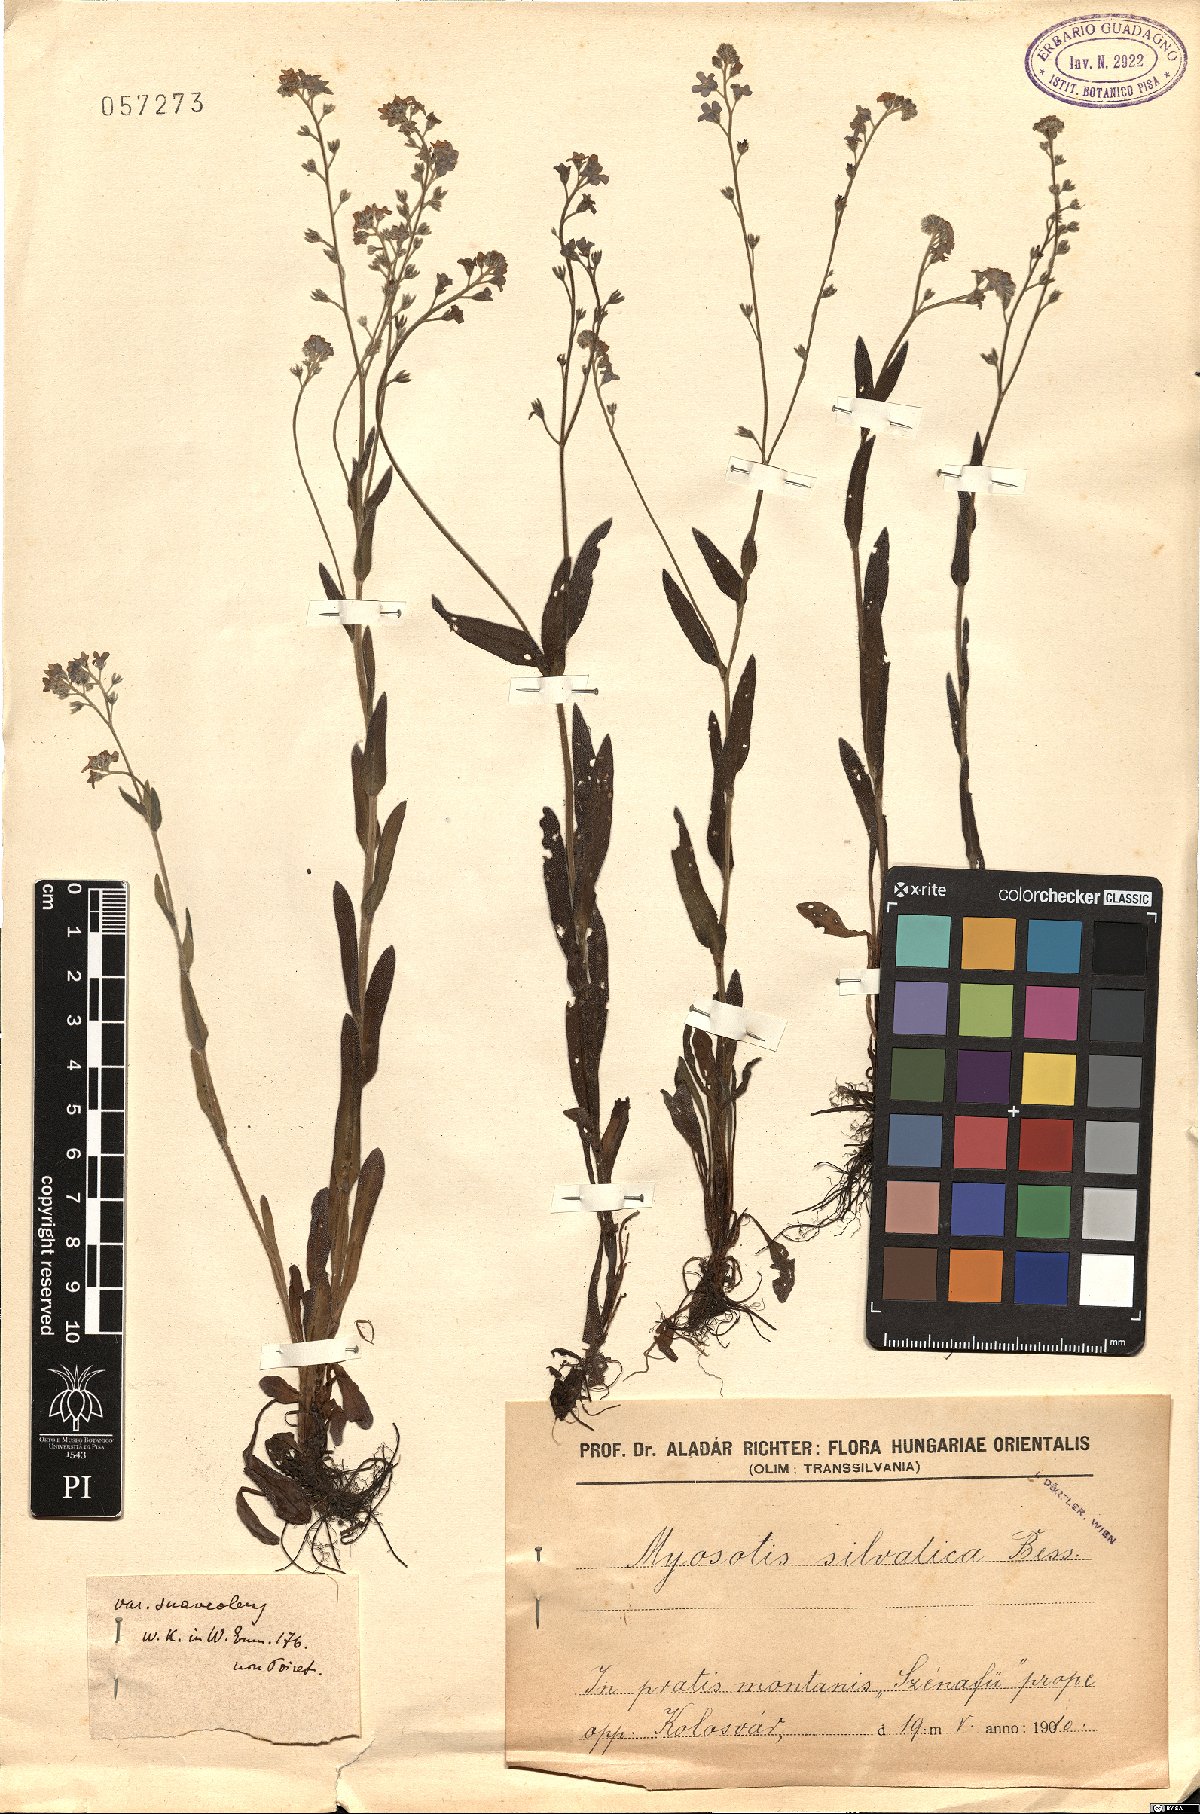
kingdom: Plantae
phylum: Tracheophyta
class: Magnoliopsida
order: Boraginales
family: Boraginaceae
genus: Myosotis
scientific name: Myosotis sylvatica
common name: Wood forget-me-not
